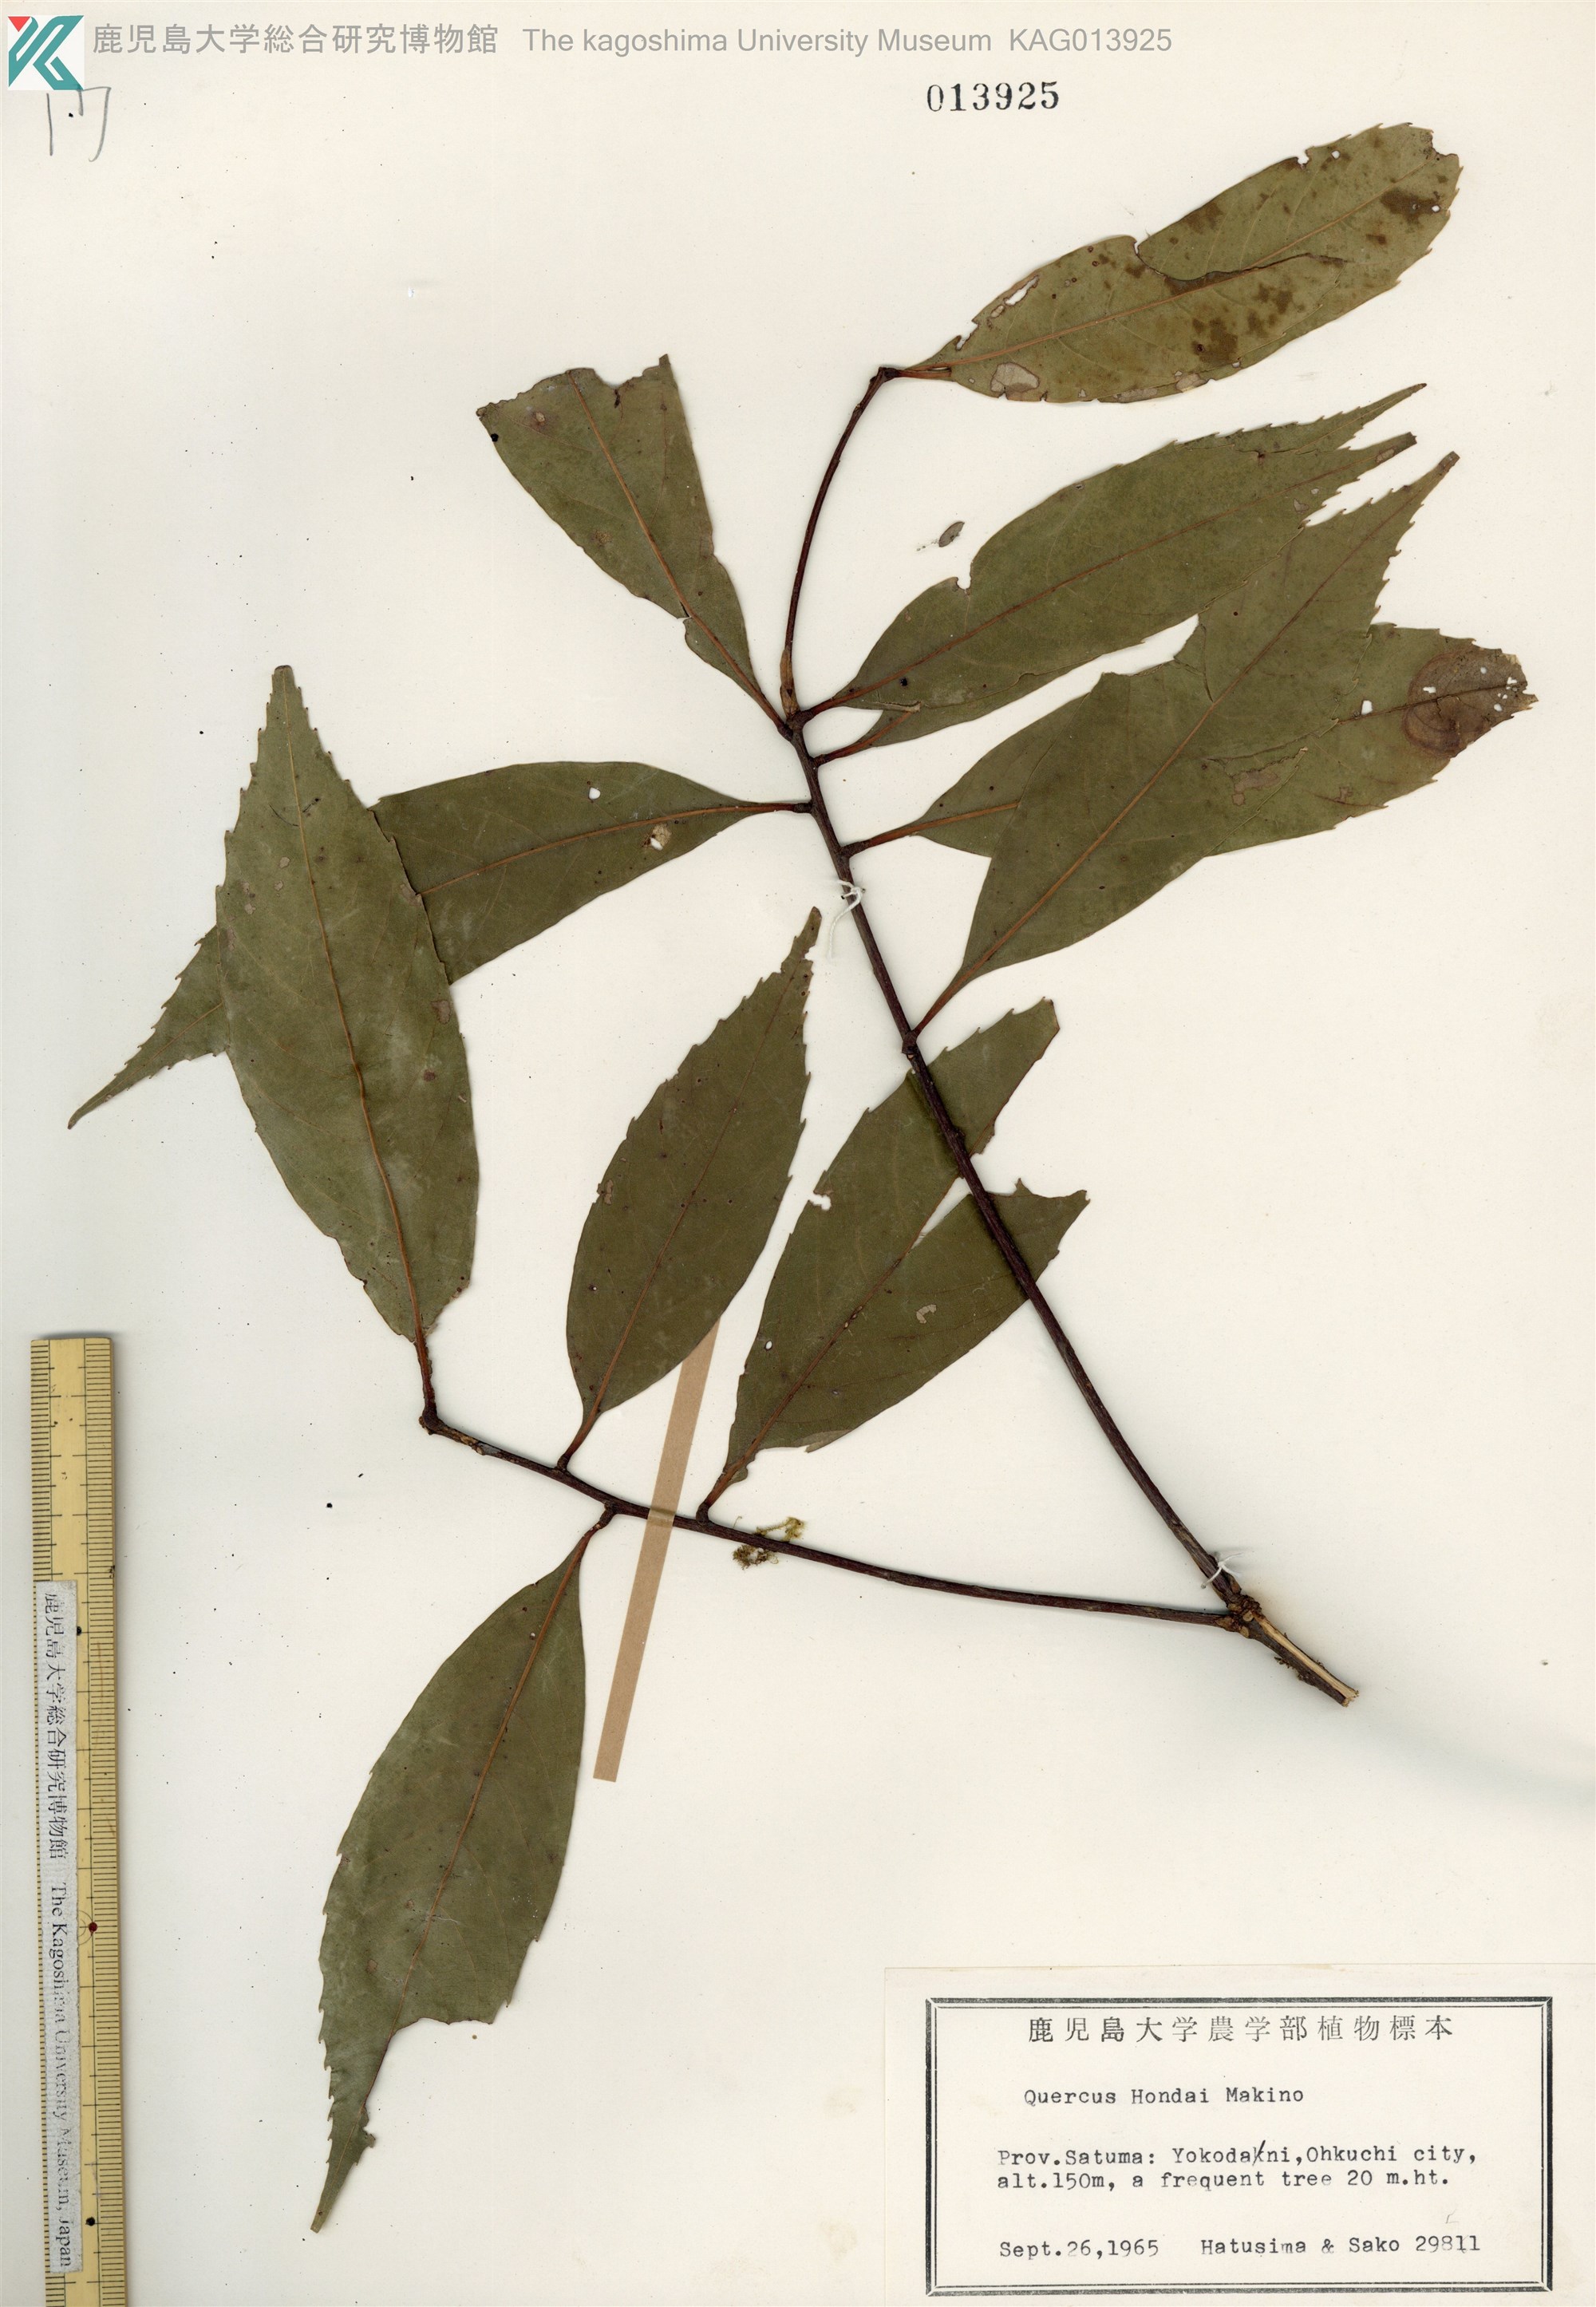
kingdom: Plantae
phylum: Tracheophyta
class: Magnoliopsida
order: Fagales
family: Fagaceae
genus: Quercus
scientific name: Quercus hondae
